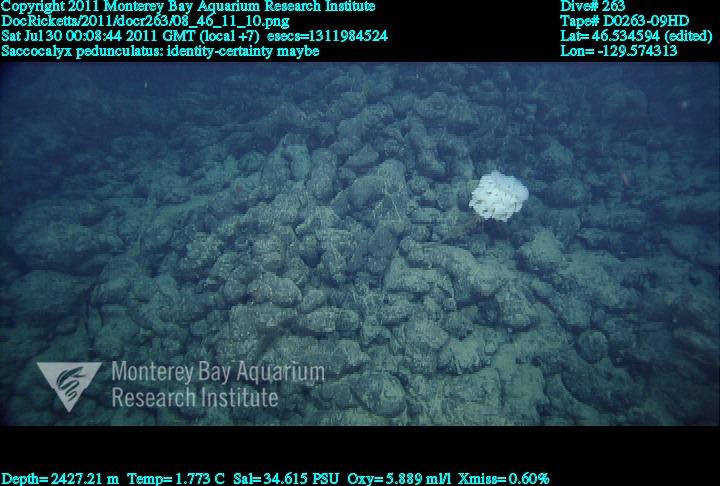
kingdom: Animalia
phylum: Porifera
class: Hexactinellida
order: Lyssacinosida
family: Euplectellidae
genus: Saccocalyx
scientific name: Saccocalyx pedunculatus
